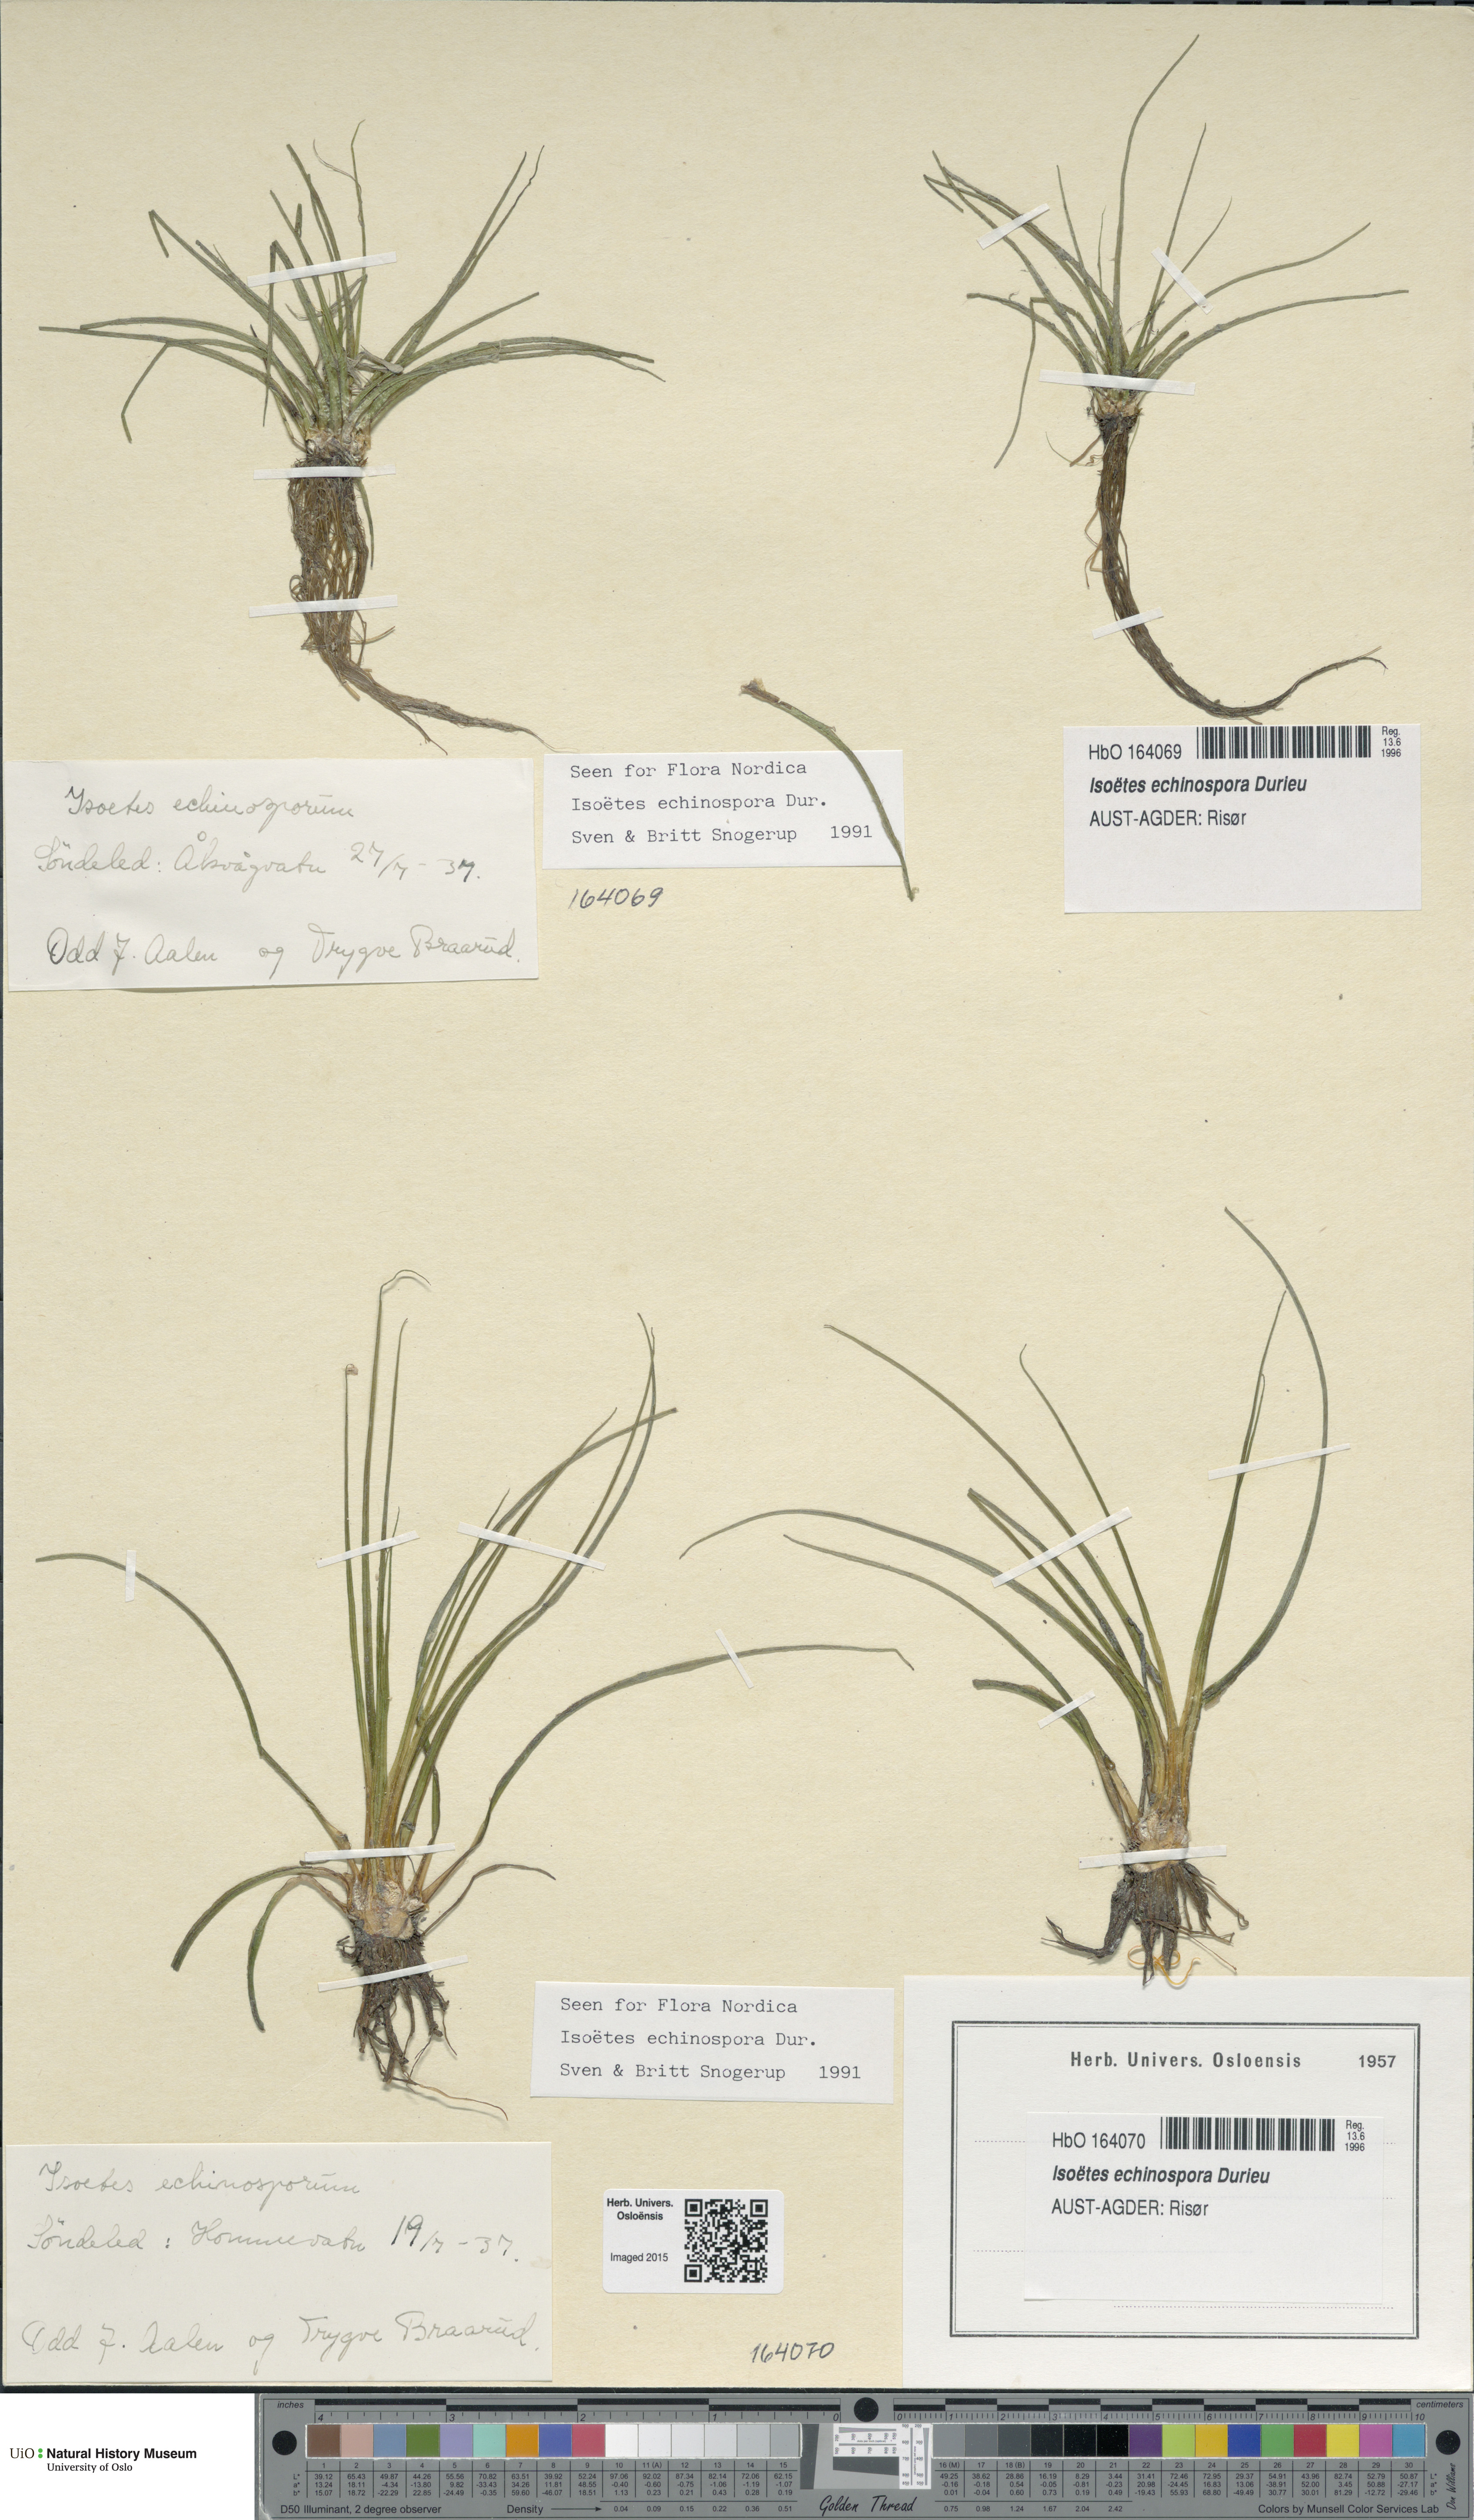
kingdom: Plantae
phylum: Tracheophyta
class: Lycopodiopsida
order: Isoetales
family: Isoetaceae
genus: Isoetes
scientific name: Isoetes echinospora
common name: Spring quillwort
